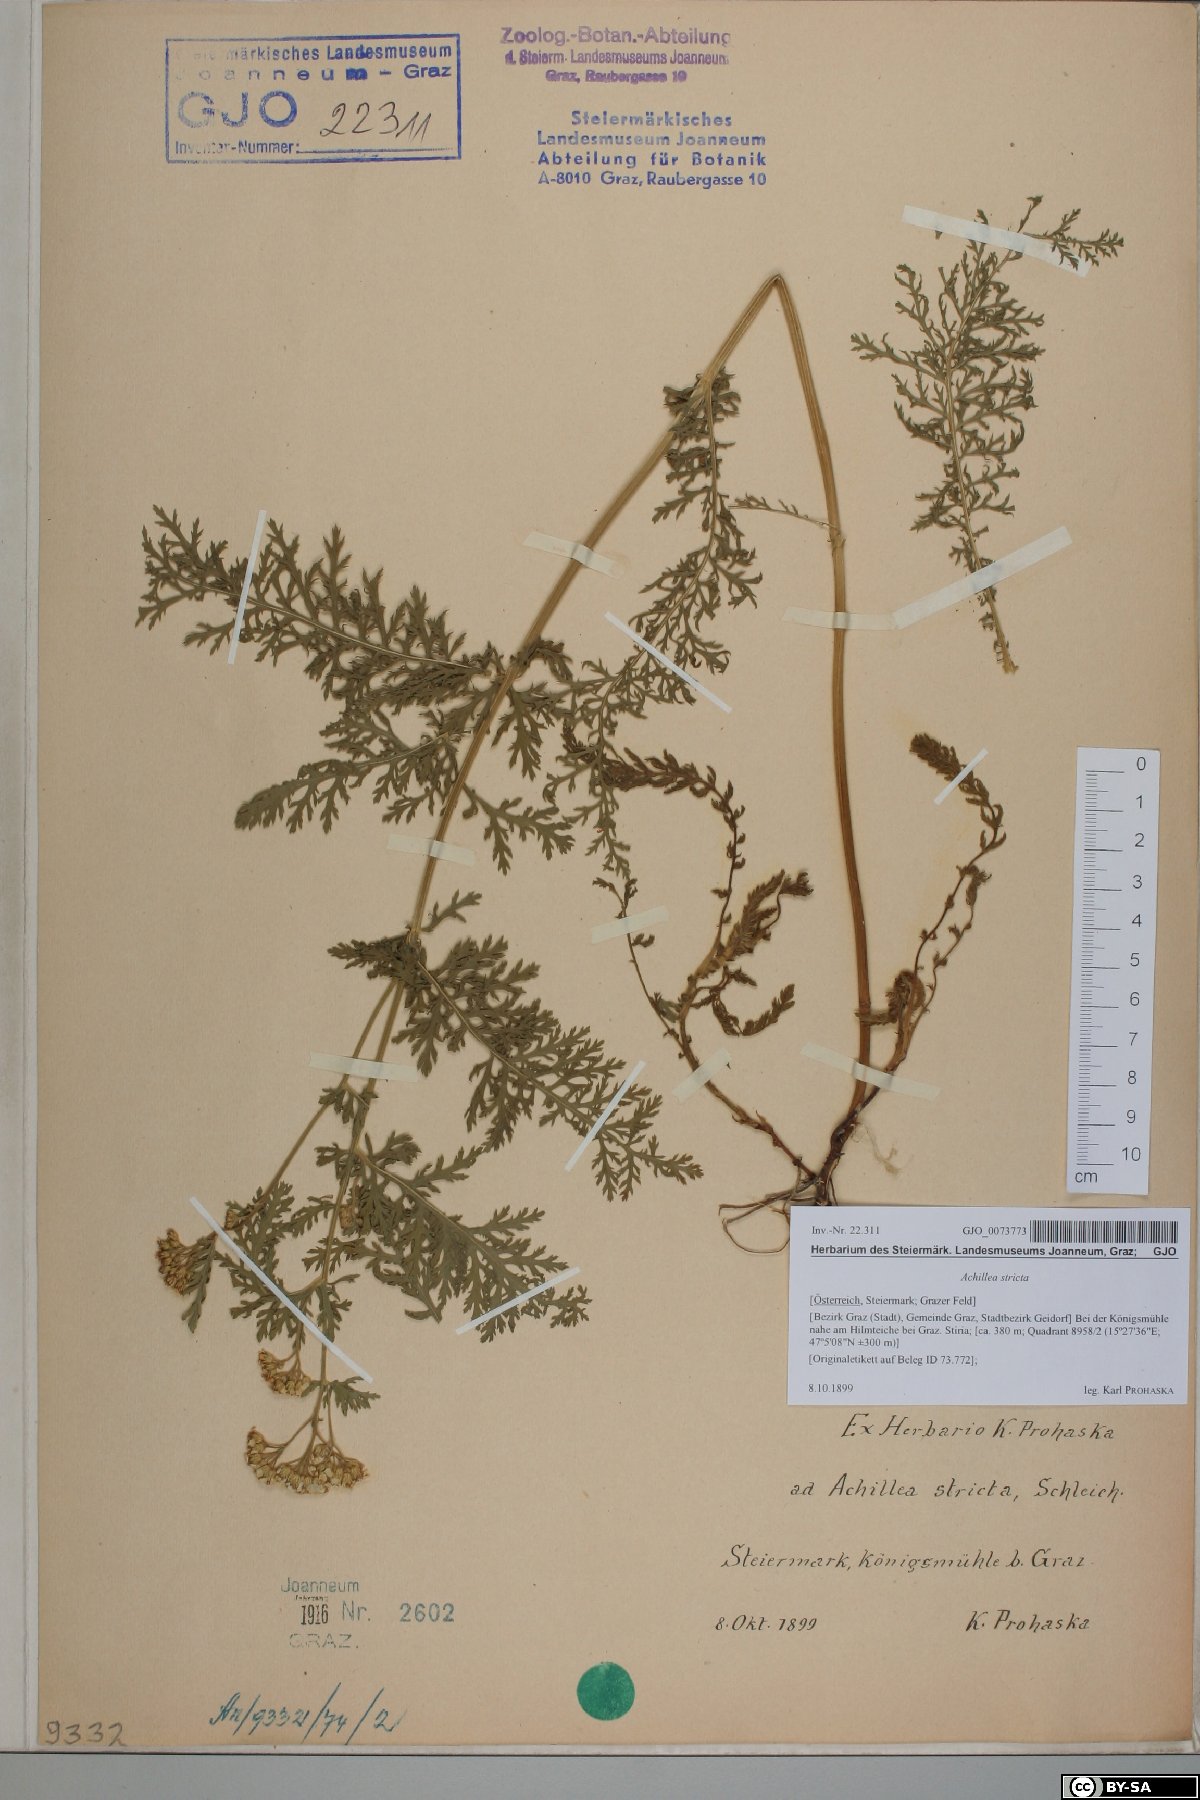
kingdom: Plantae
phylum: Tracheophyta
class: Magnoliopsida
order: Asterales
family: Asteraceae
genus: Achillea
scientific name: Achillea distans
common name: Tall yarrow
